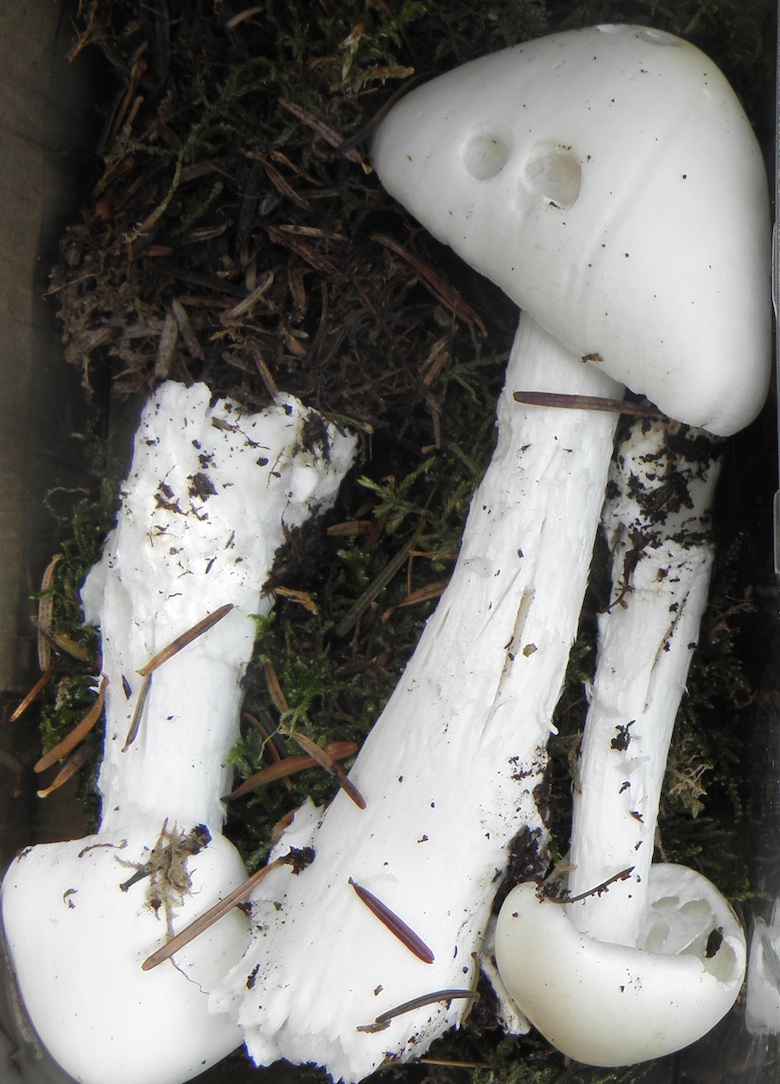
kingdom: Fungi
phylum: Basidiomycota
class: Agaricomycetes
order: Agaricales
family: Amanitaceae
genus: Amanita
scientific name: Amanita virosa
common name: snehvid fluesvamp
